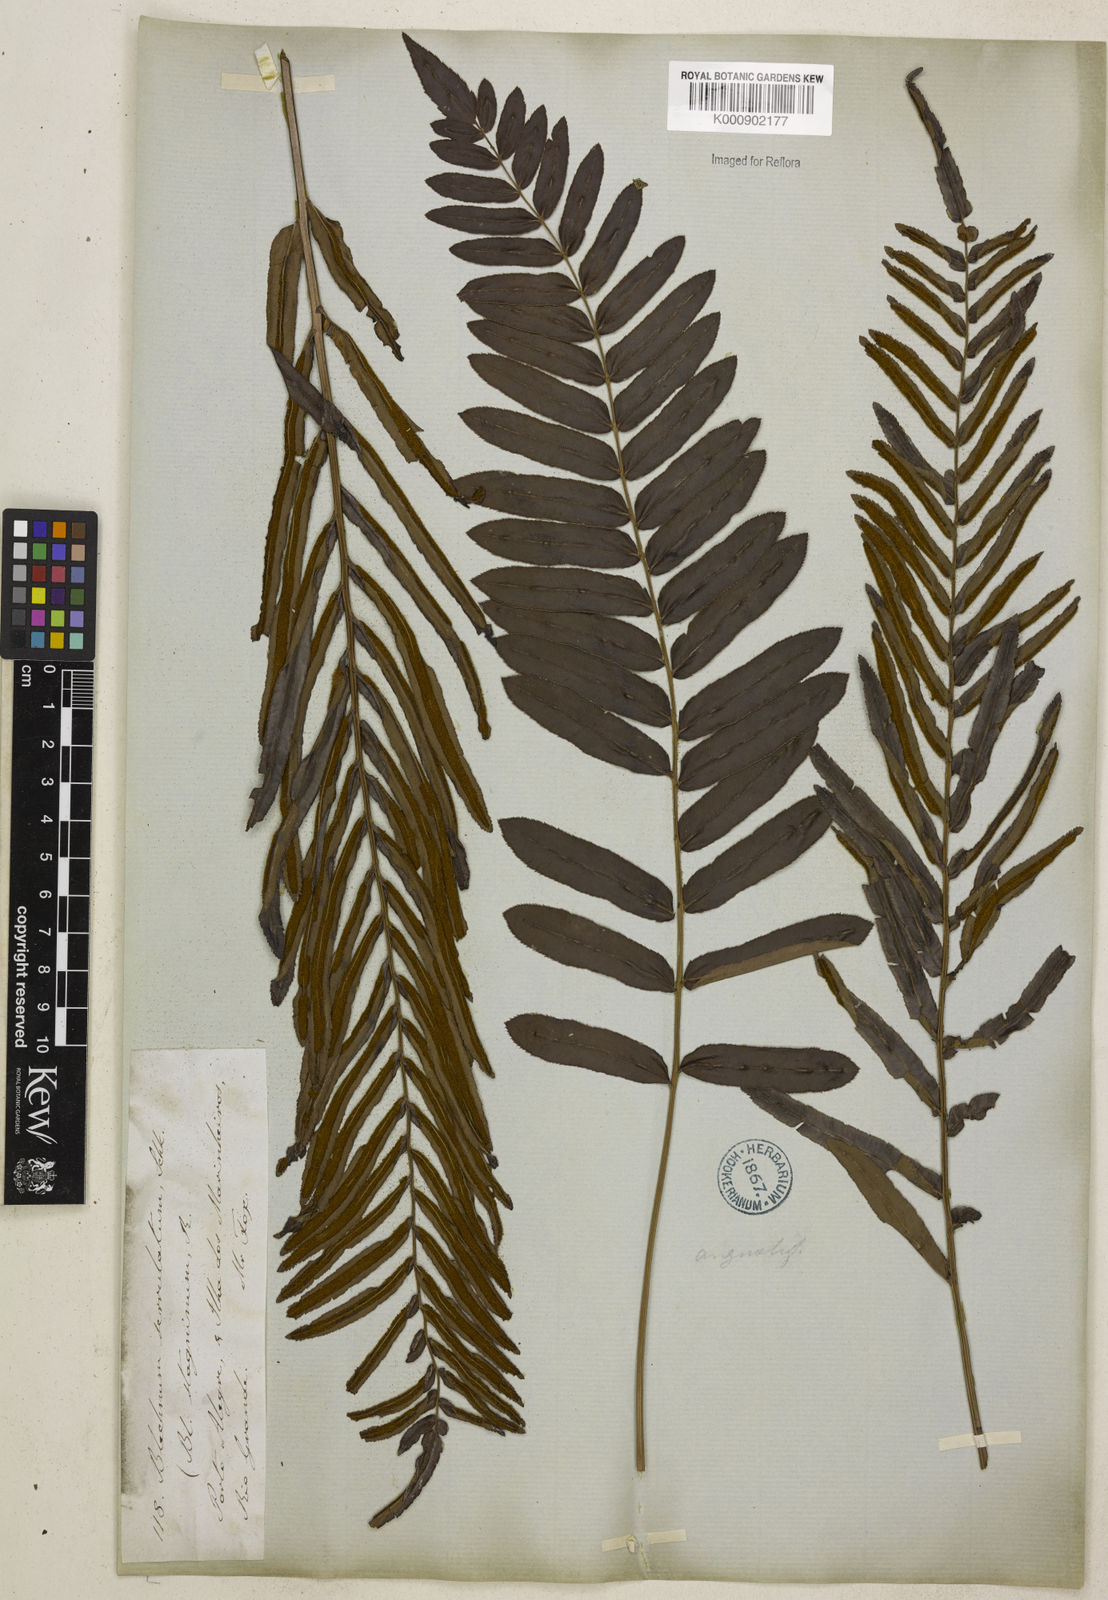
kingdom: Plantae
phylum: Tracheophyta
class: Polypodiopsida
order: Polypodiales
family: Blechnaceae
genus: Telmatoblechnum
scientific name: Telmatoblechnum serrulatum
